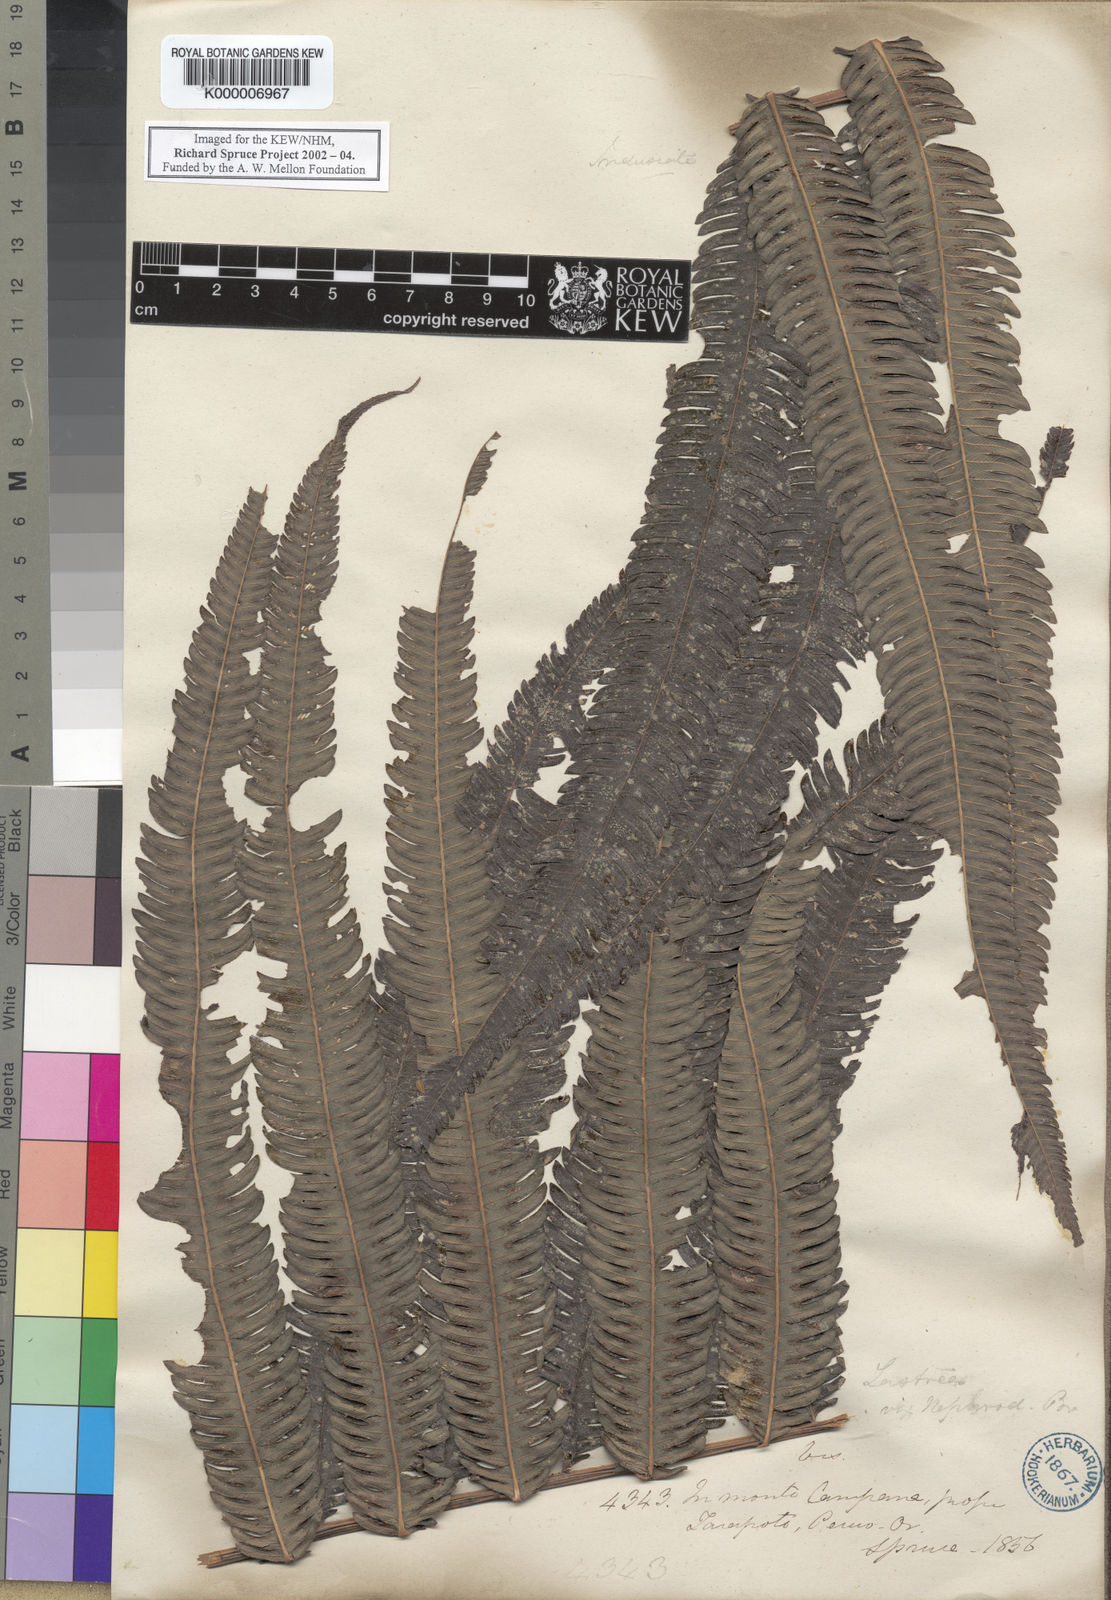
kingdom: Plantae
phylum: Tracheophyta
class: Polypodiopsida
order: Polypodiales
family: Thelypteridaceae
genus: Goniopteris
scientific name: Goniopteris tristis
